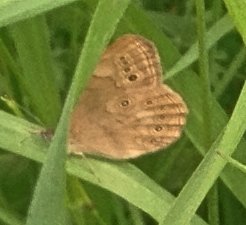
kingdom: Animalia
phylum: Arthropoda
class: Insecta
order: Lepidoptera
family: Nymphalidae
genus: Lethe
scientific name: Lethe eurydice
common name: Eyed Brown
